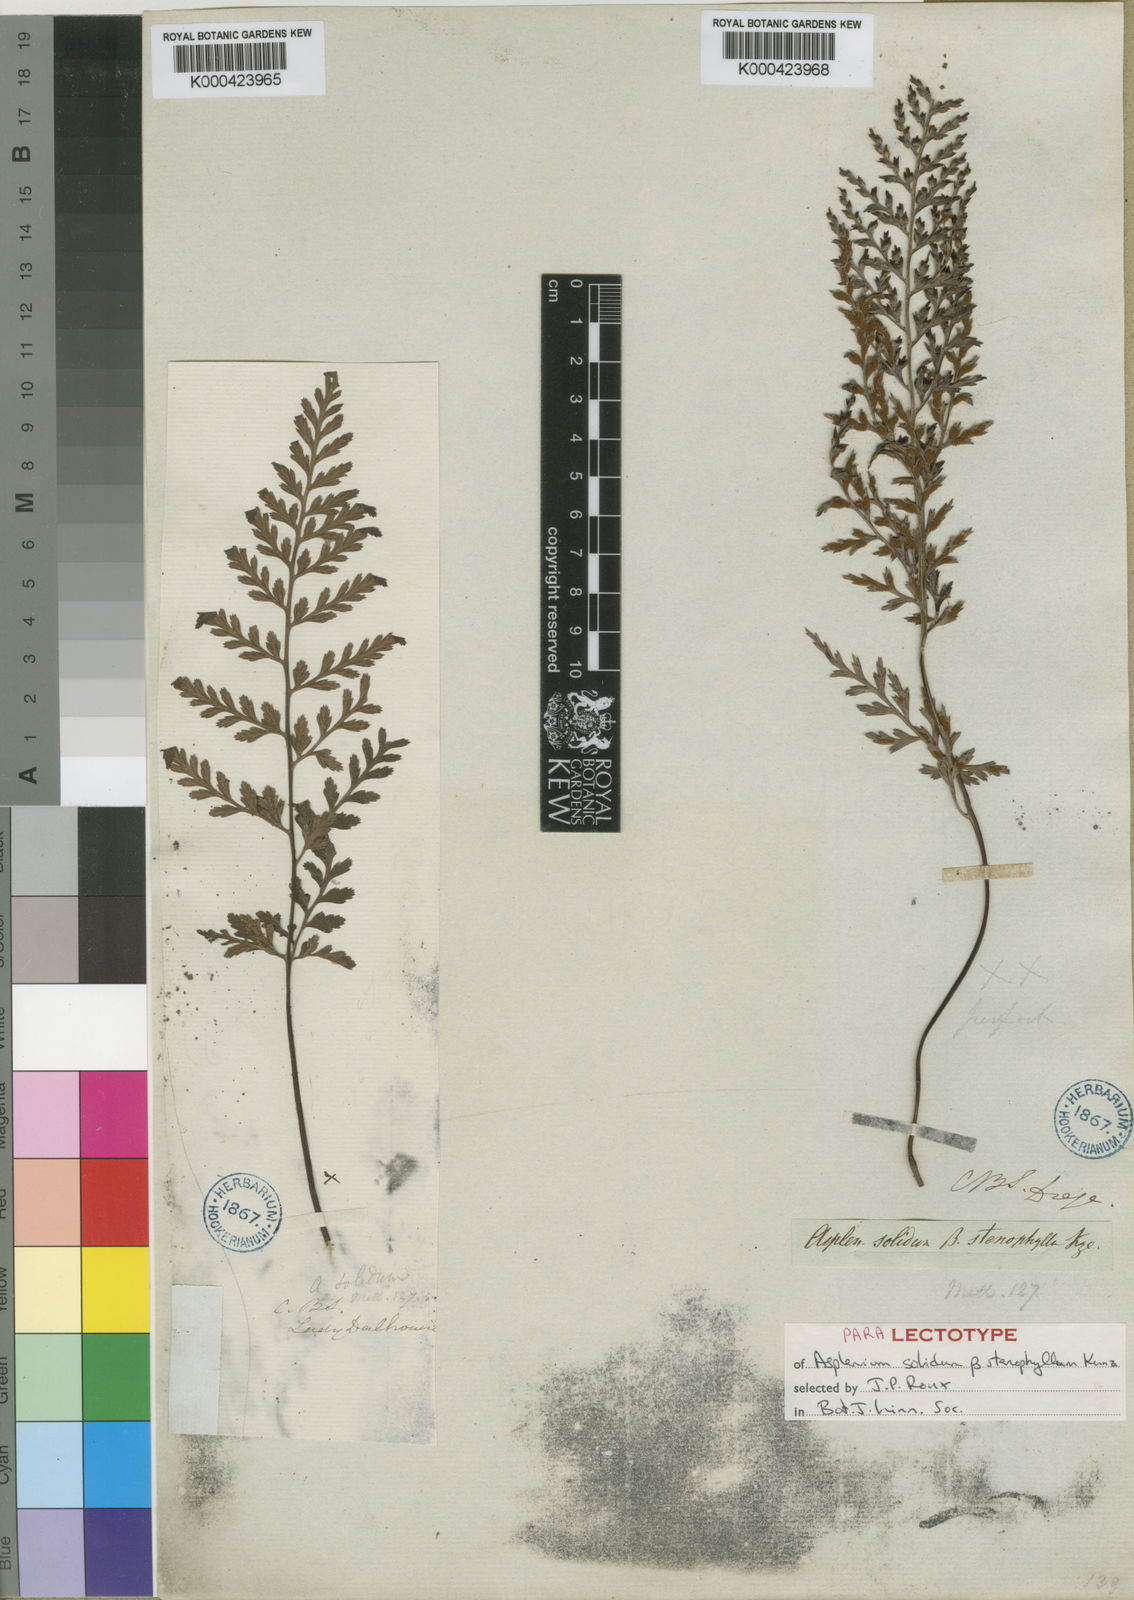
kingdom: Plantae
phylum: Tracheophyta
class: Polypodiopsida
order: Polypodiales
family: Aspleniaceae
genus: Asplenium
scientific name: Asplenium adiantum-nigrum
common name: Black spleenwort
